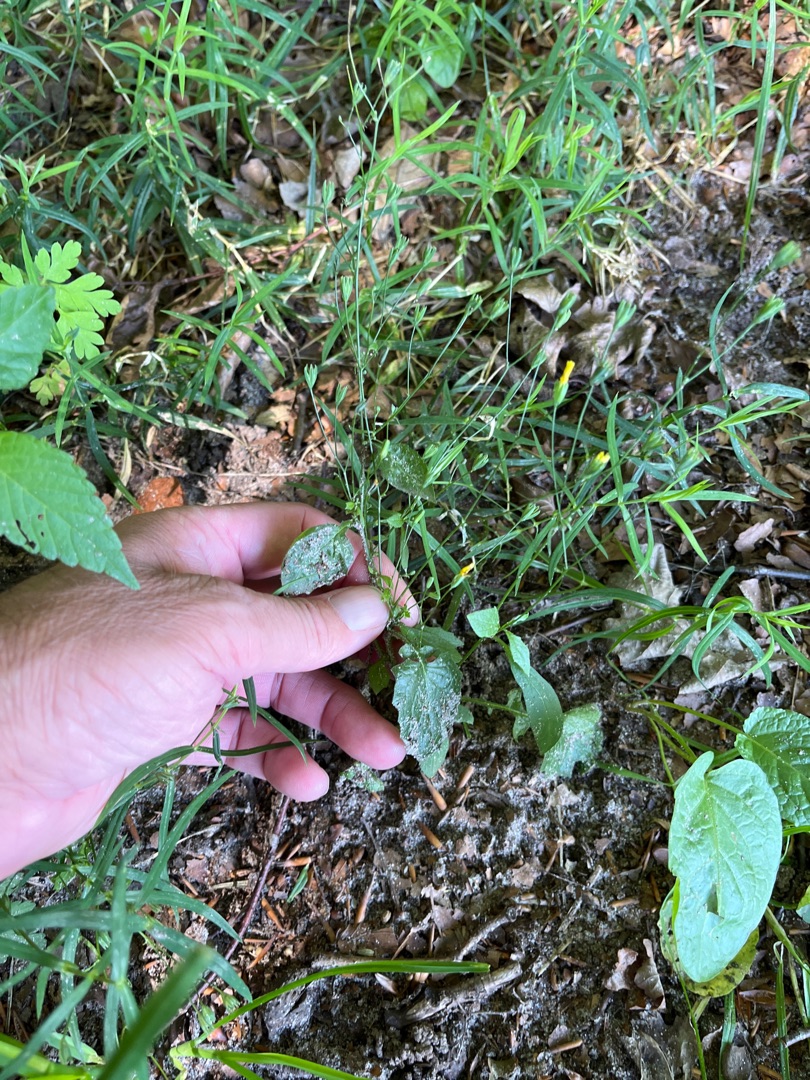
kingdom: Plantae
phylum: Tracheophyta
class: Magnoliopsida
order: Asterales
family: Asteraceae
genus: Lapsana
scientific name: Lapsana communis
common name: Haremad
